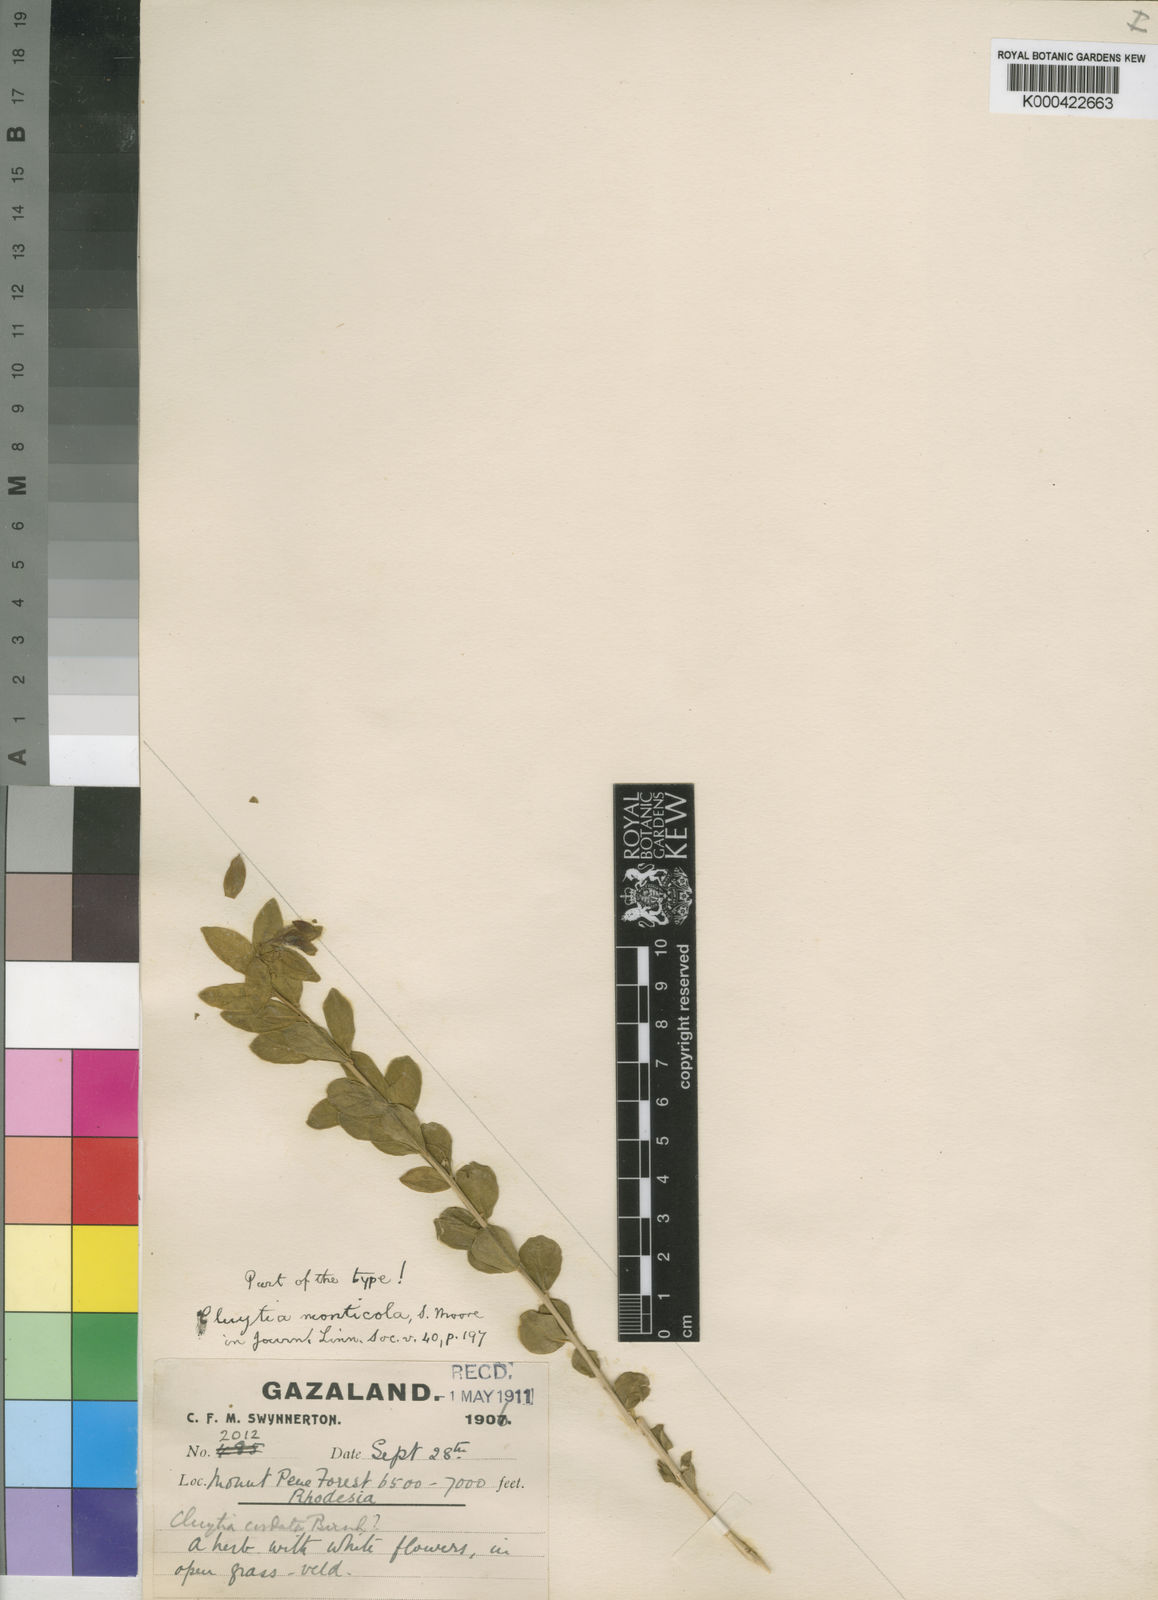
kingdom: Plantae
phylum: Tracheophyta
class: Magnoliopsida
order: Malpighiales
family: Peraceae
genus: Clutia
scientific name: Clutia monticola
